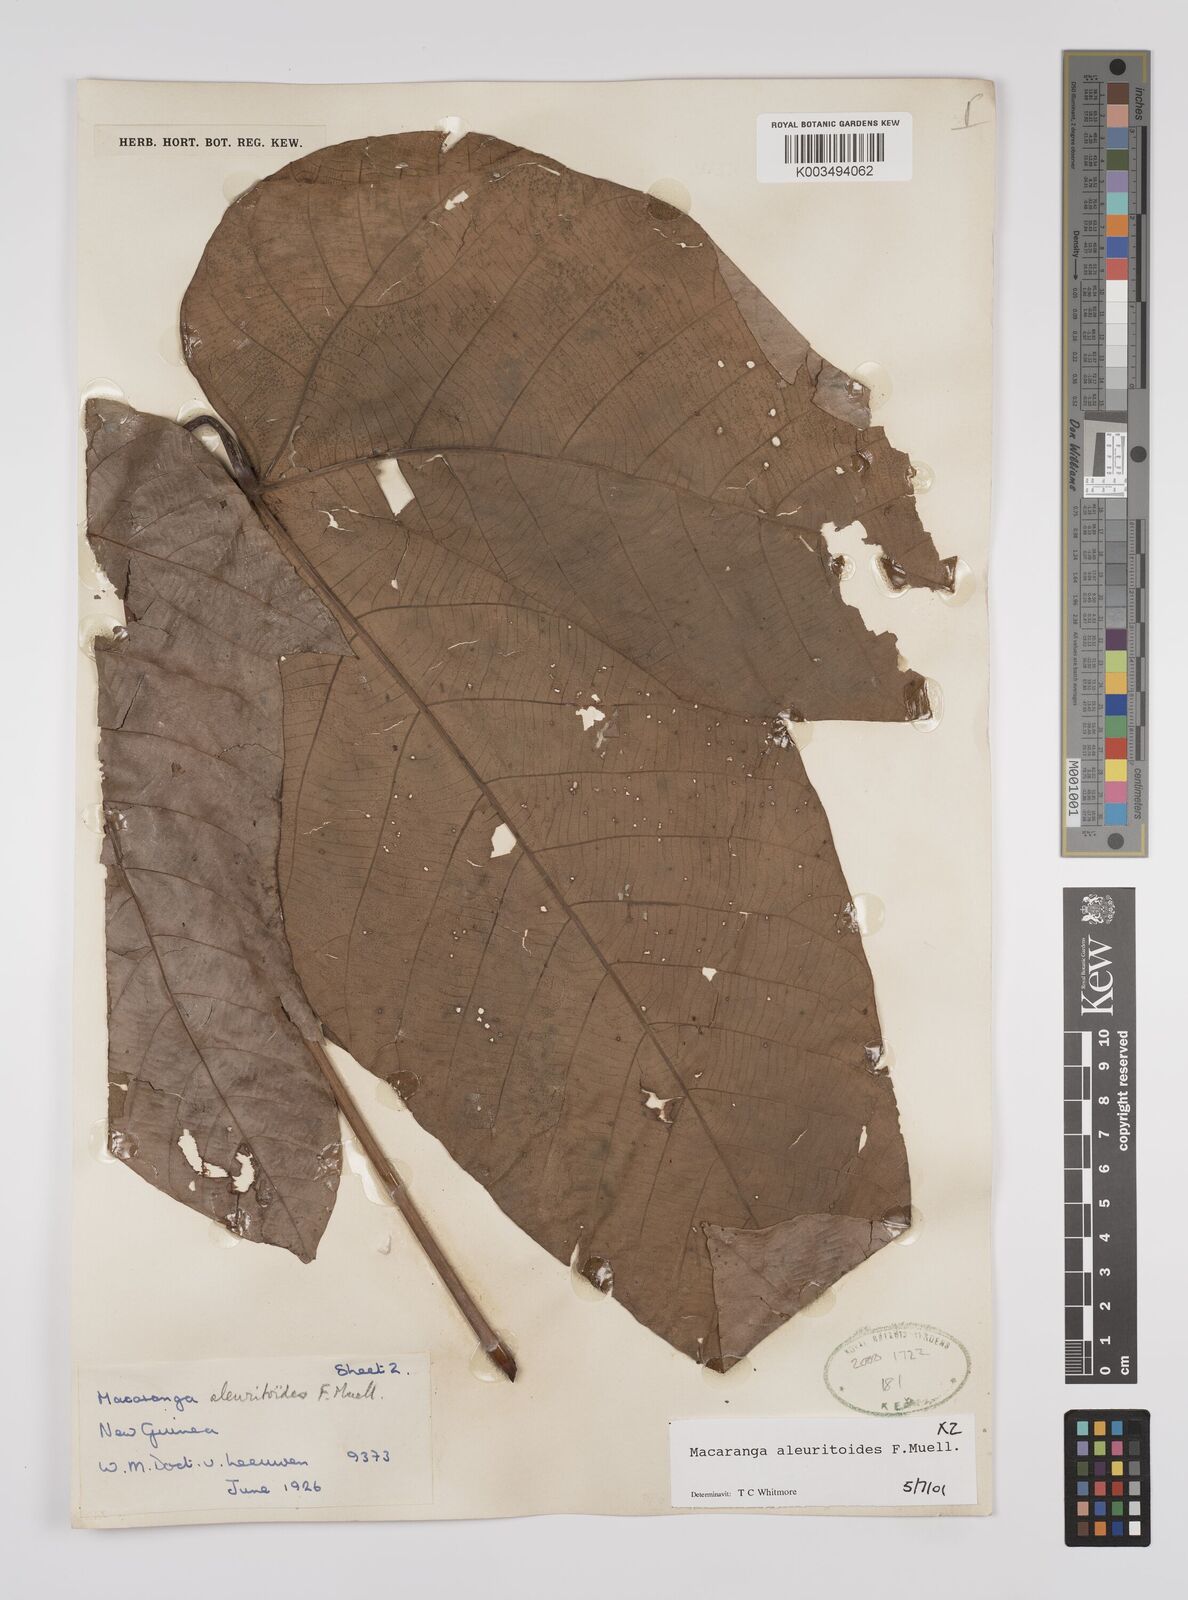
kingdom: Plantae
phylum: Tracheophyta
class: Magnoliopsida
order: Malpighiales
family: Euphorbiaceae
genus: Macaranga
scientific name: Macaranga aleuritoides
